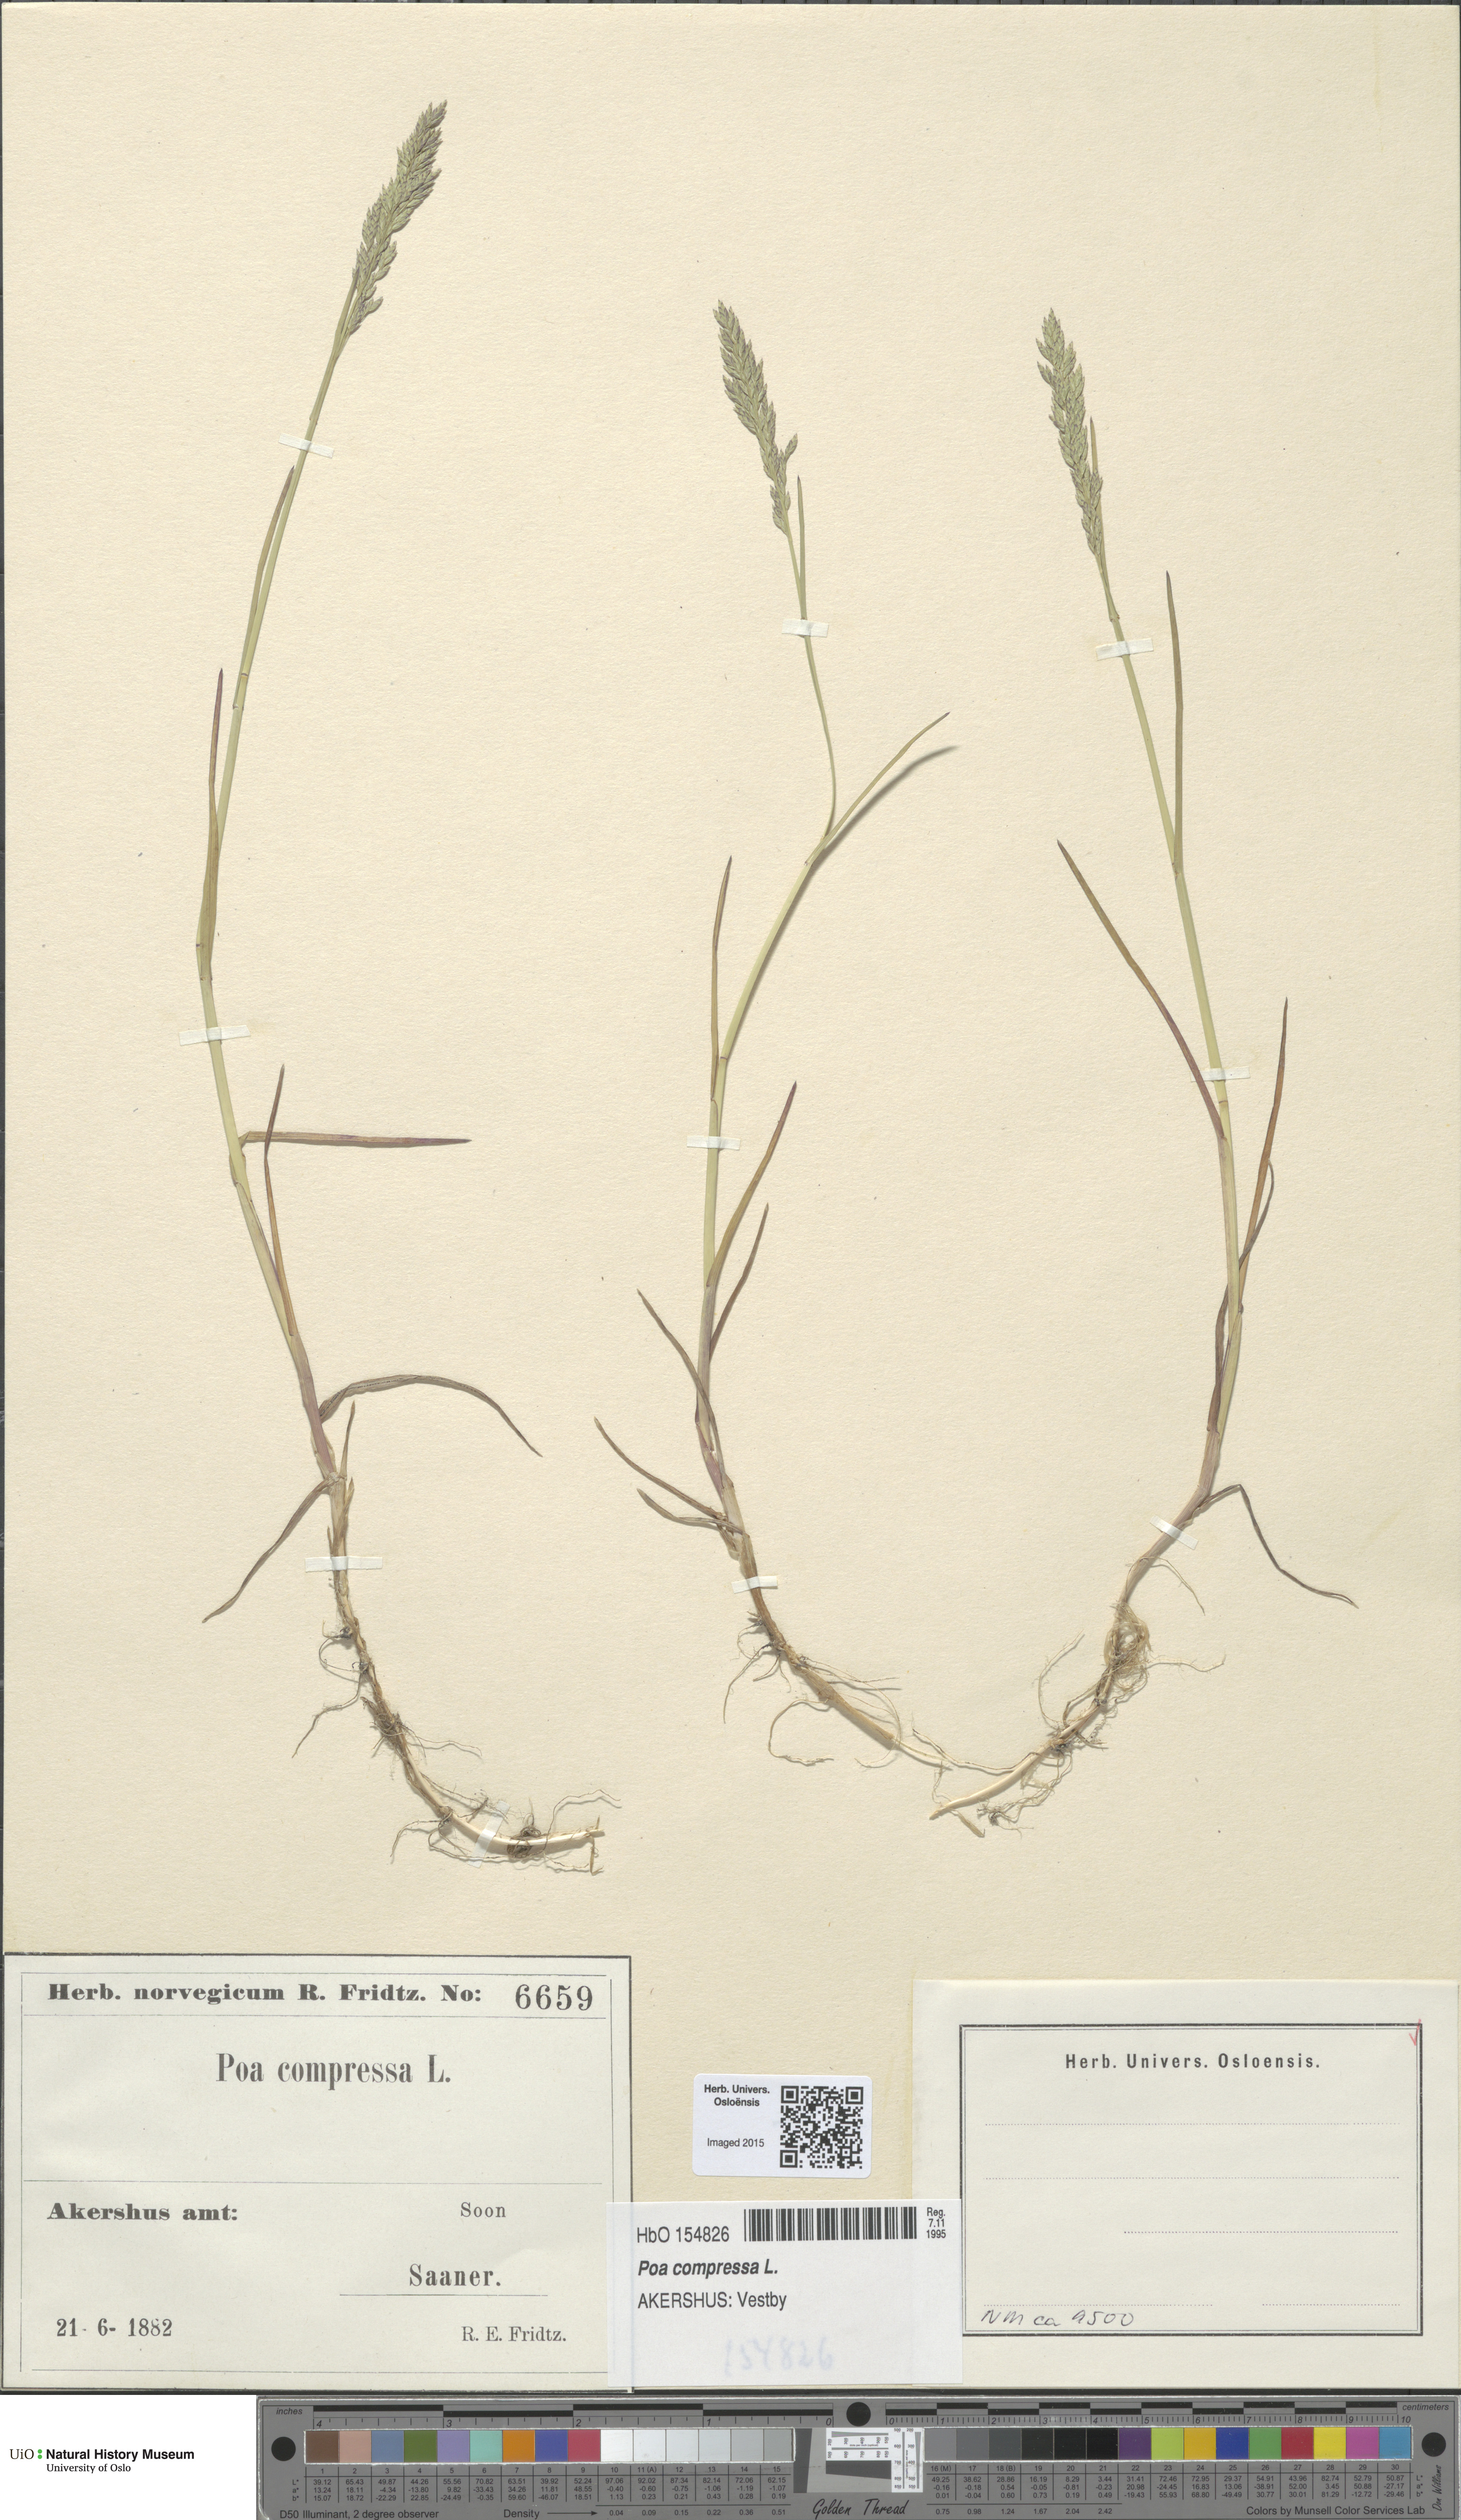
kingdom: Plantae
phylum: Tracheophyta
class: Liliopsida
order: Poales
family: Poaceae
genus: Poa
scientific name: Poa compressa
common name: Canada bluegrass
